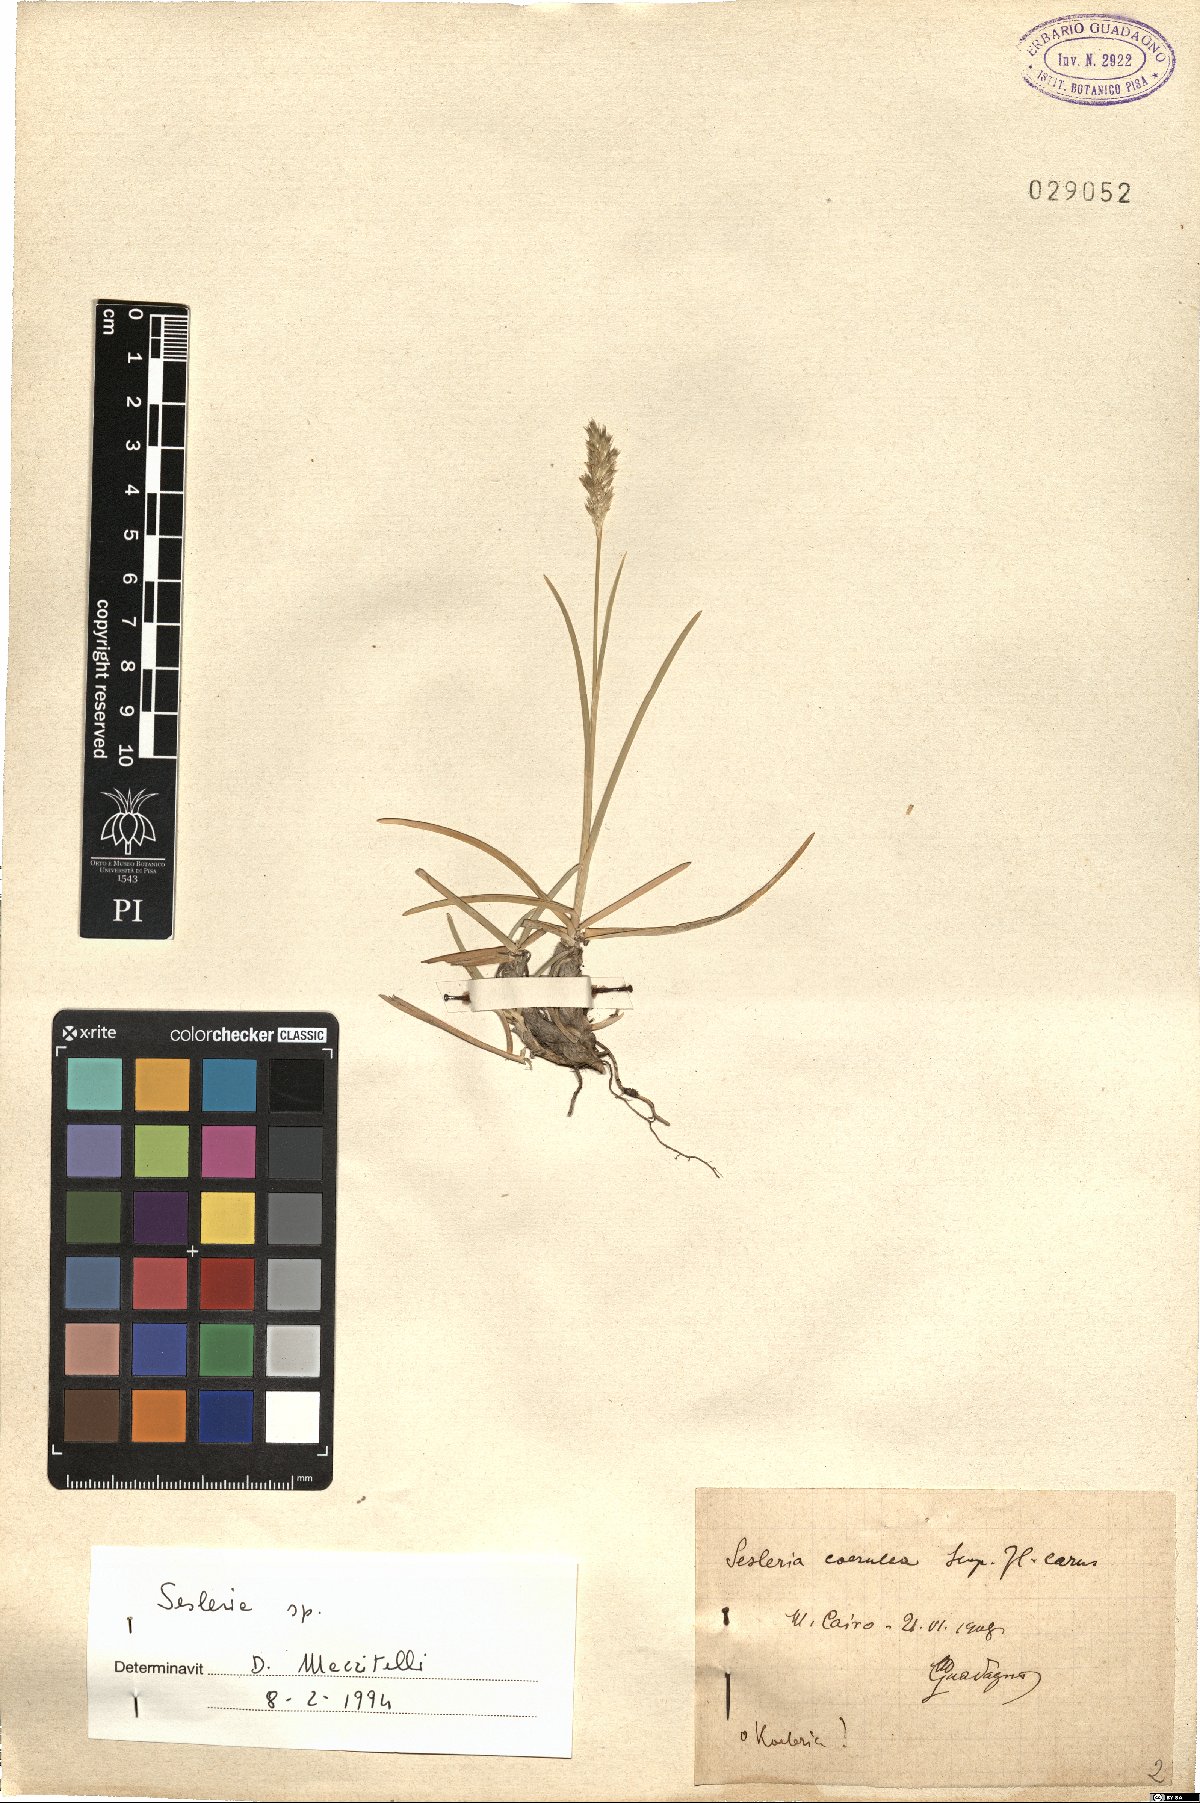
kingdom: Plantae
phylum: Tracheophyta
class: Liliopsida
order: Poales
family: Poaceae
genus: Sesleria
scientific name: Sesleria
